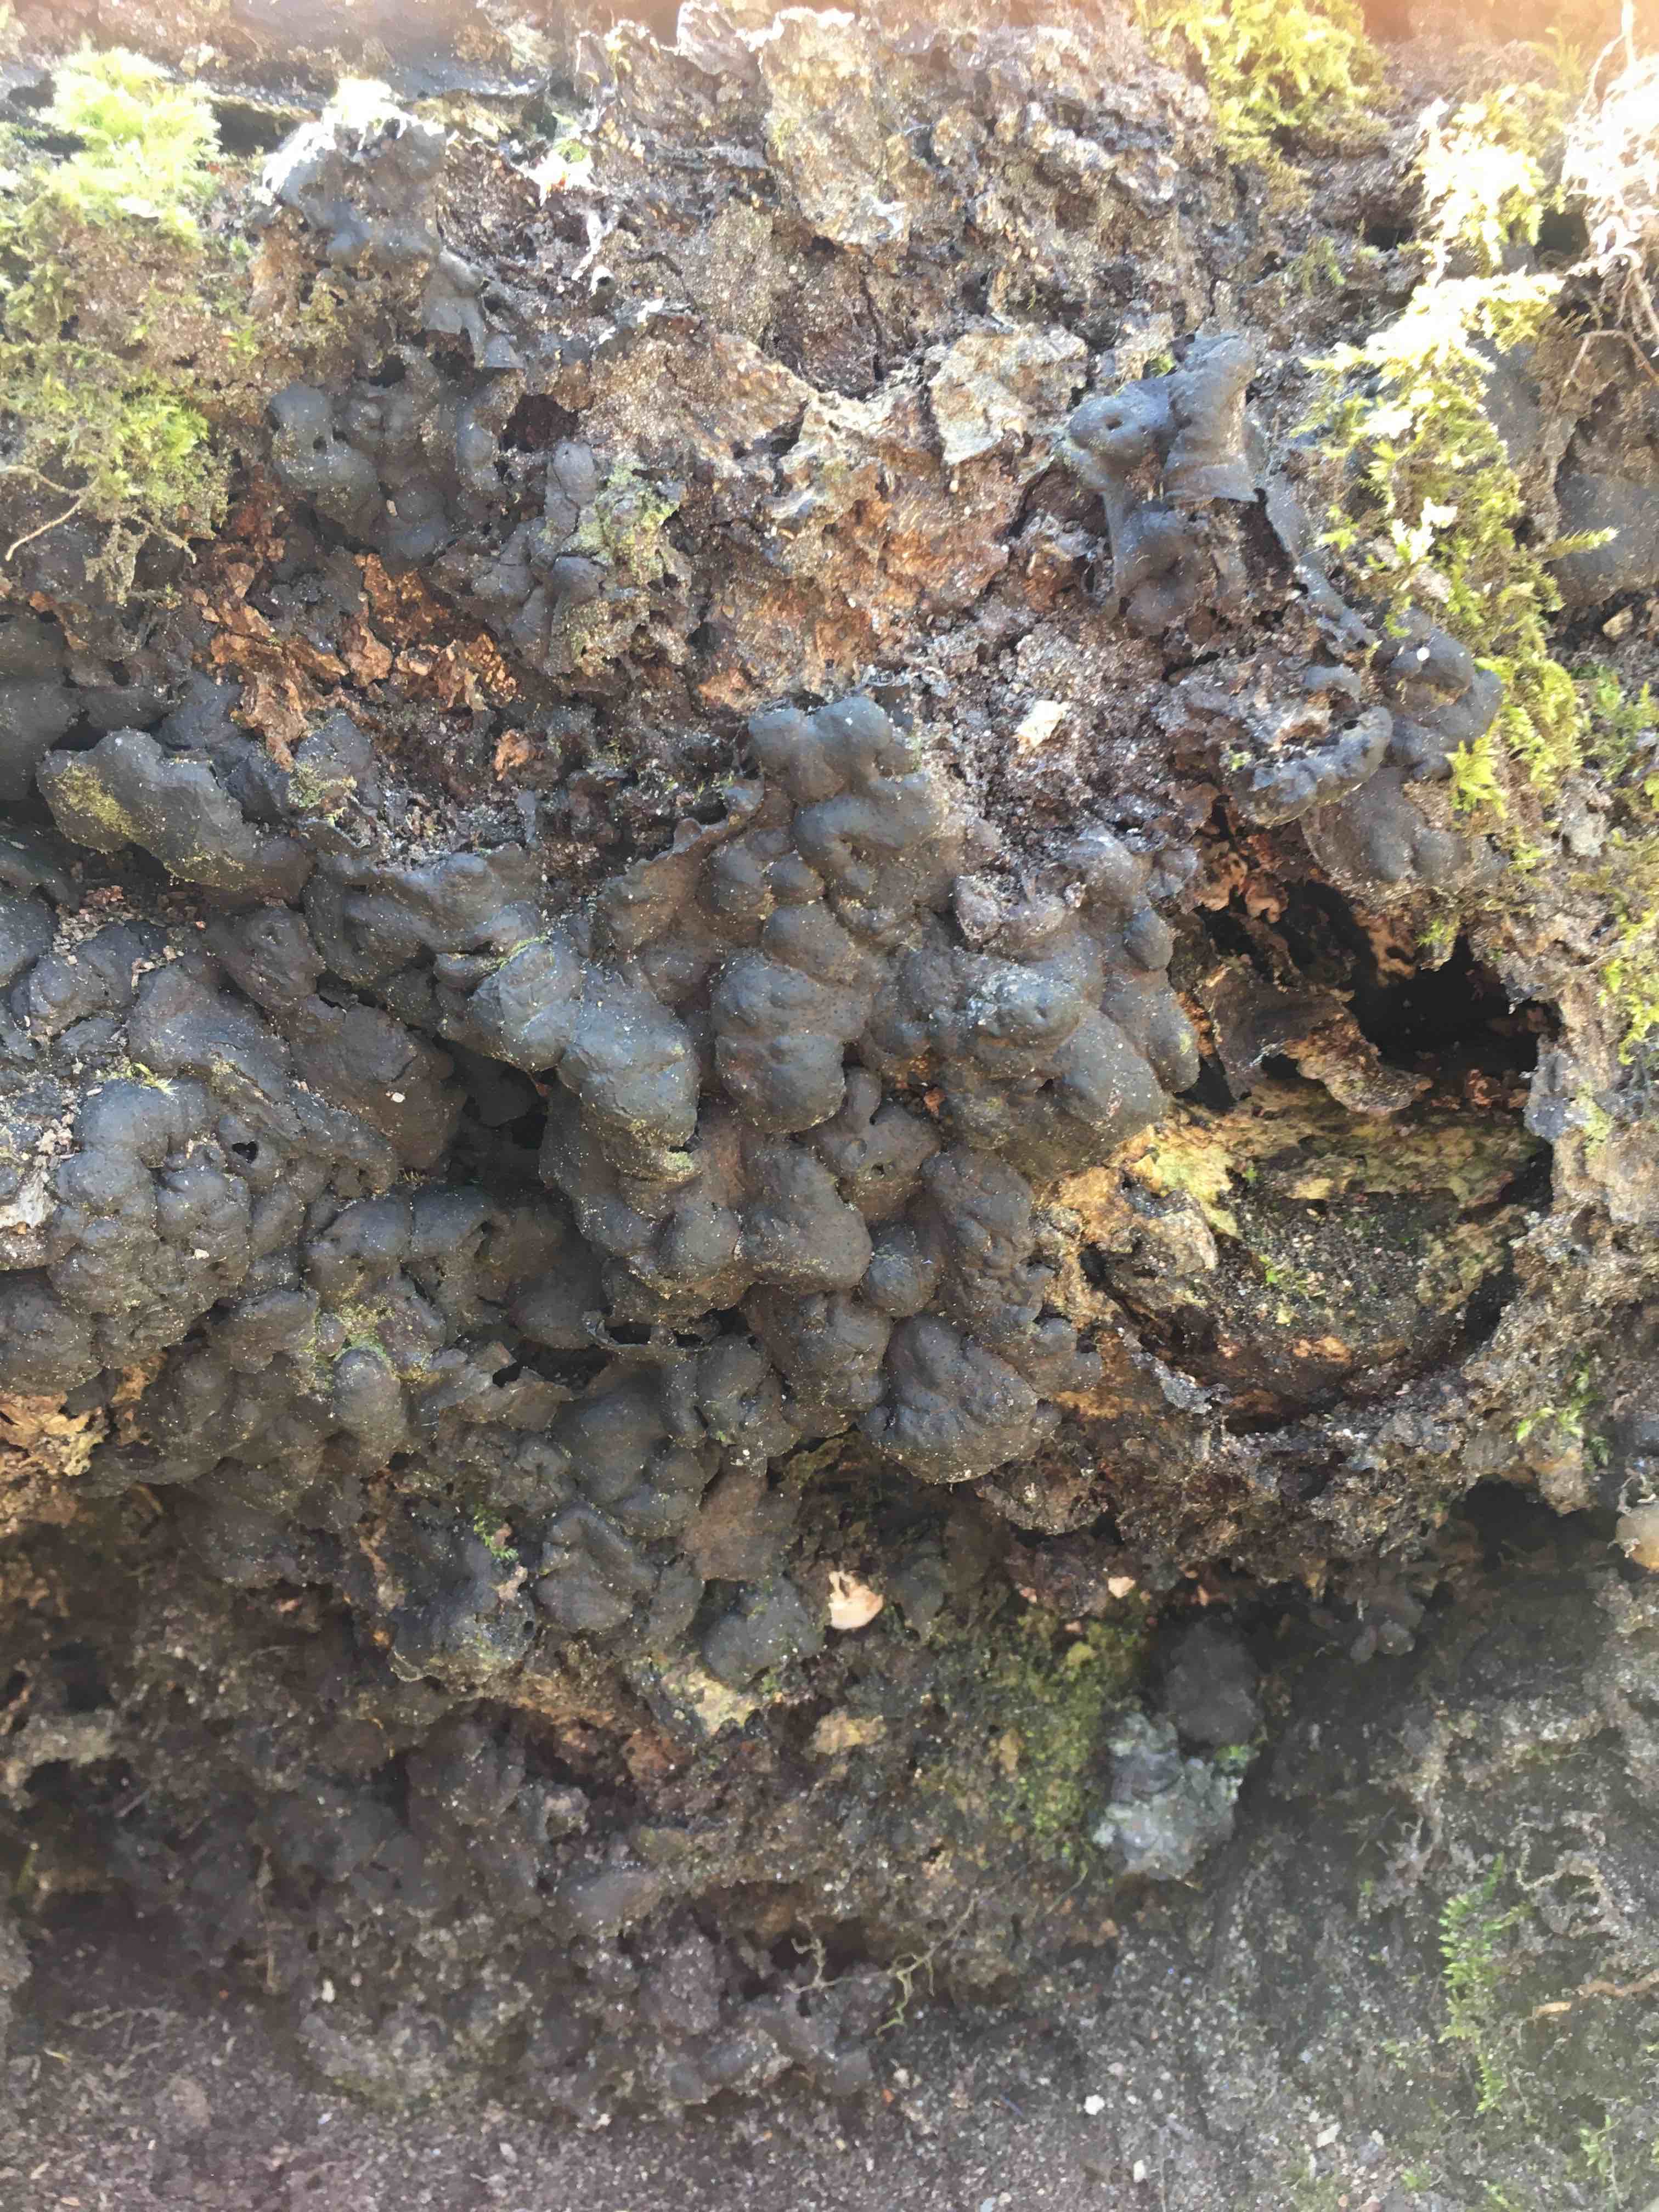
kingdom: Fungi
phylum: Ascomycota
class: Sordariomycetes
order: Xylariales
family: Xylariaceae
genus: Kretzschmaria
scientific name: Kretzschmaria deusta
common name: stor kulsvamp
